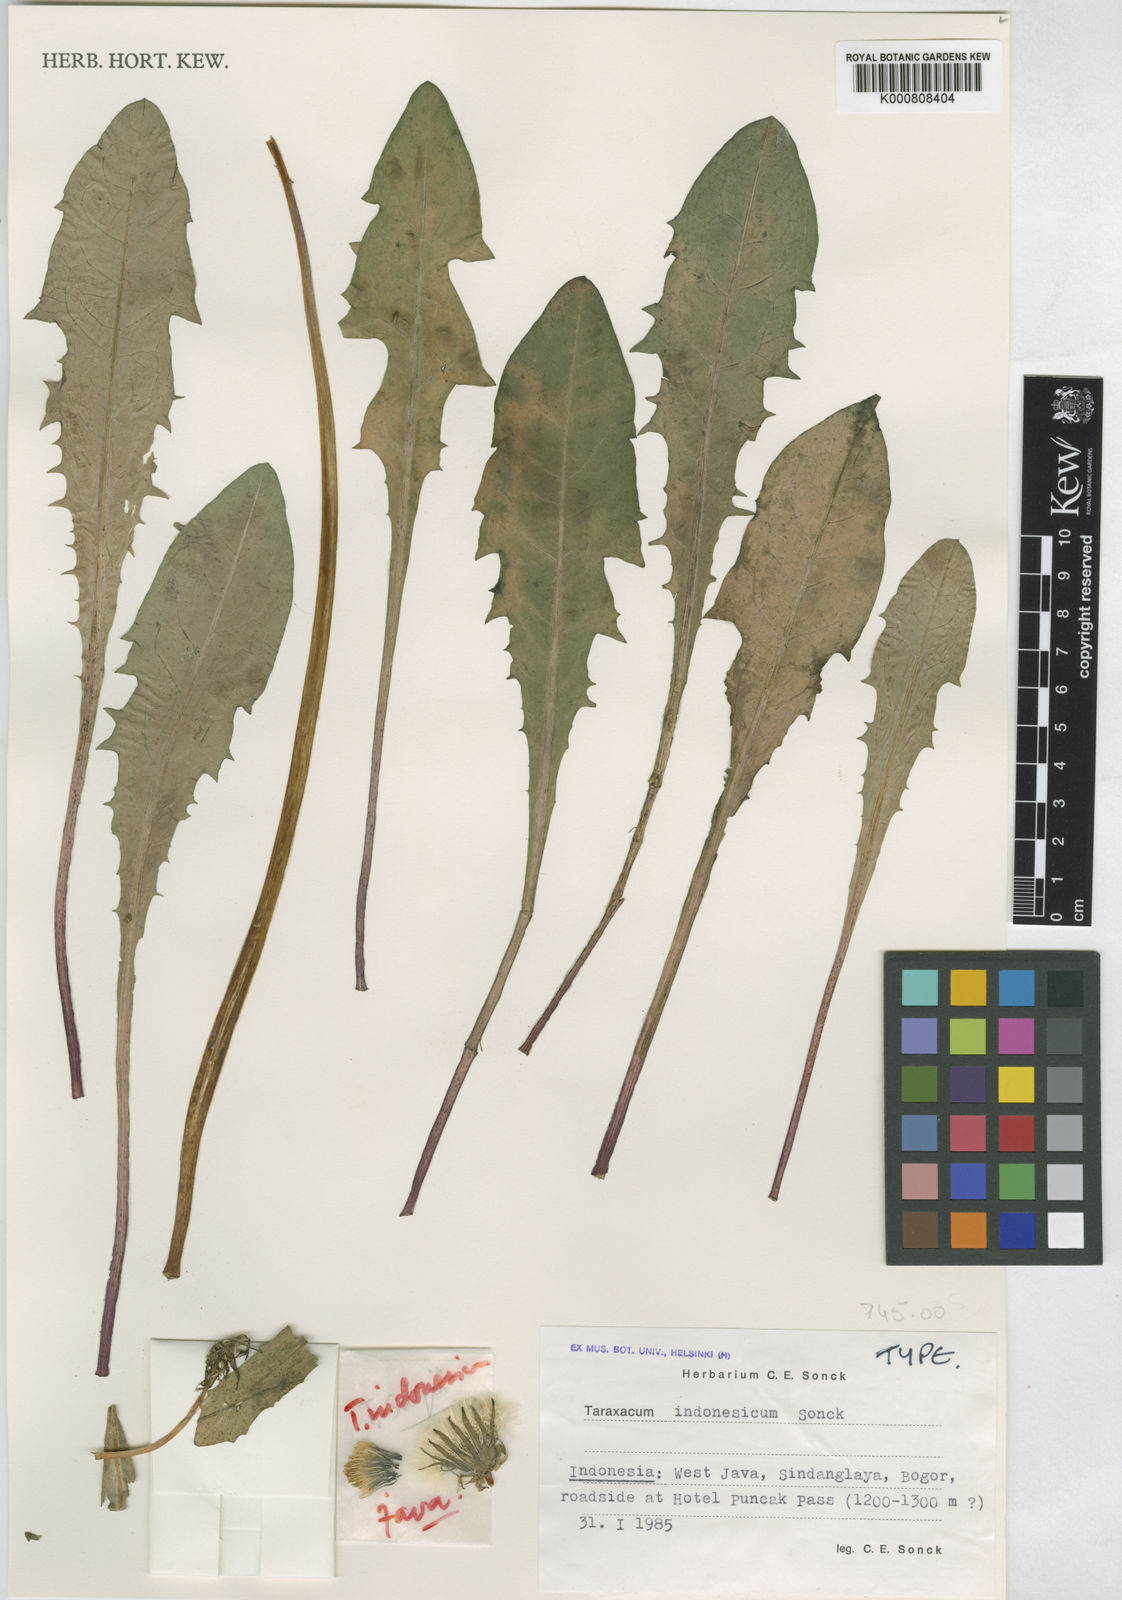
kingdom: Plantae
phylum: Tracheophyta
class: Magnoliopsida
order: Asterales
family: Asteraceae
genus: Taraxacum
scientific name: Taraxacum indonesicum
